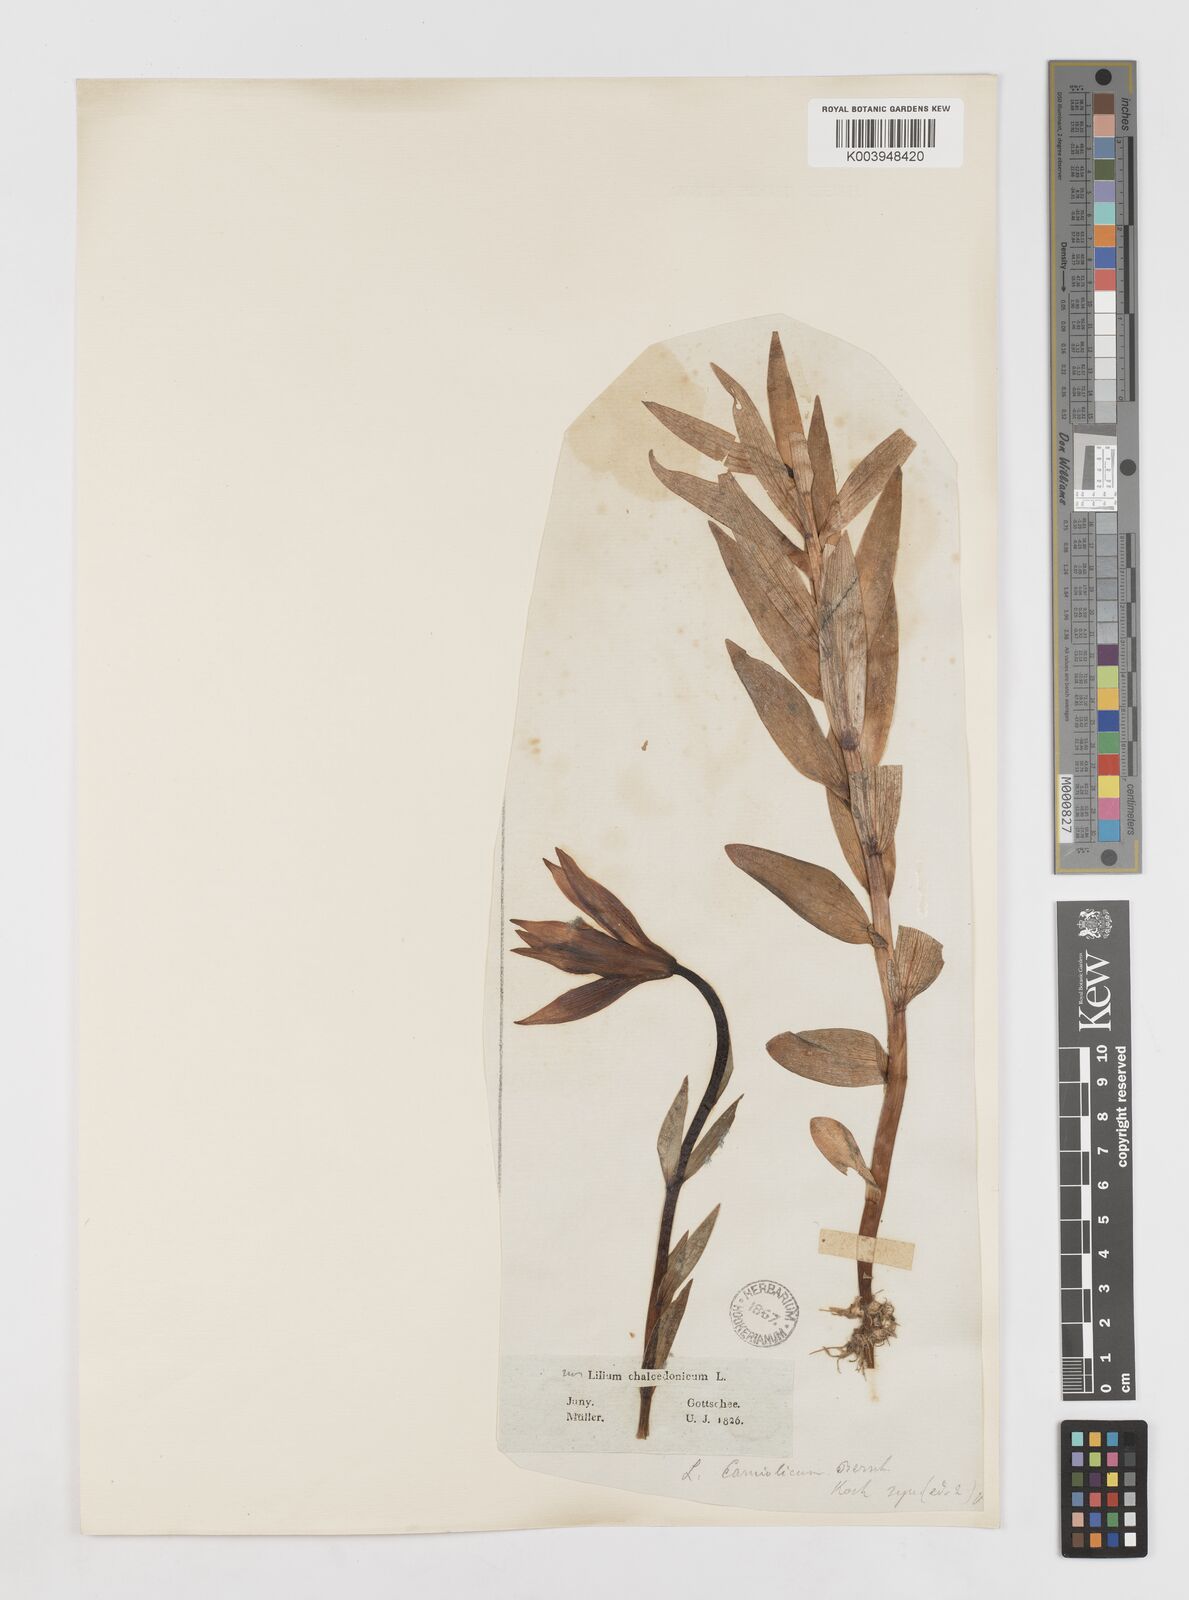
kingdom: Plantae
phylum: Tracheophyta
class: Liliopsida
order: Liliales
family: Liliaceae
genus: Lilium
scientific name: Lilium carniolicum
